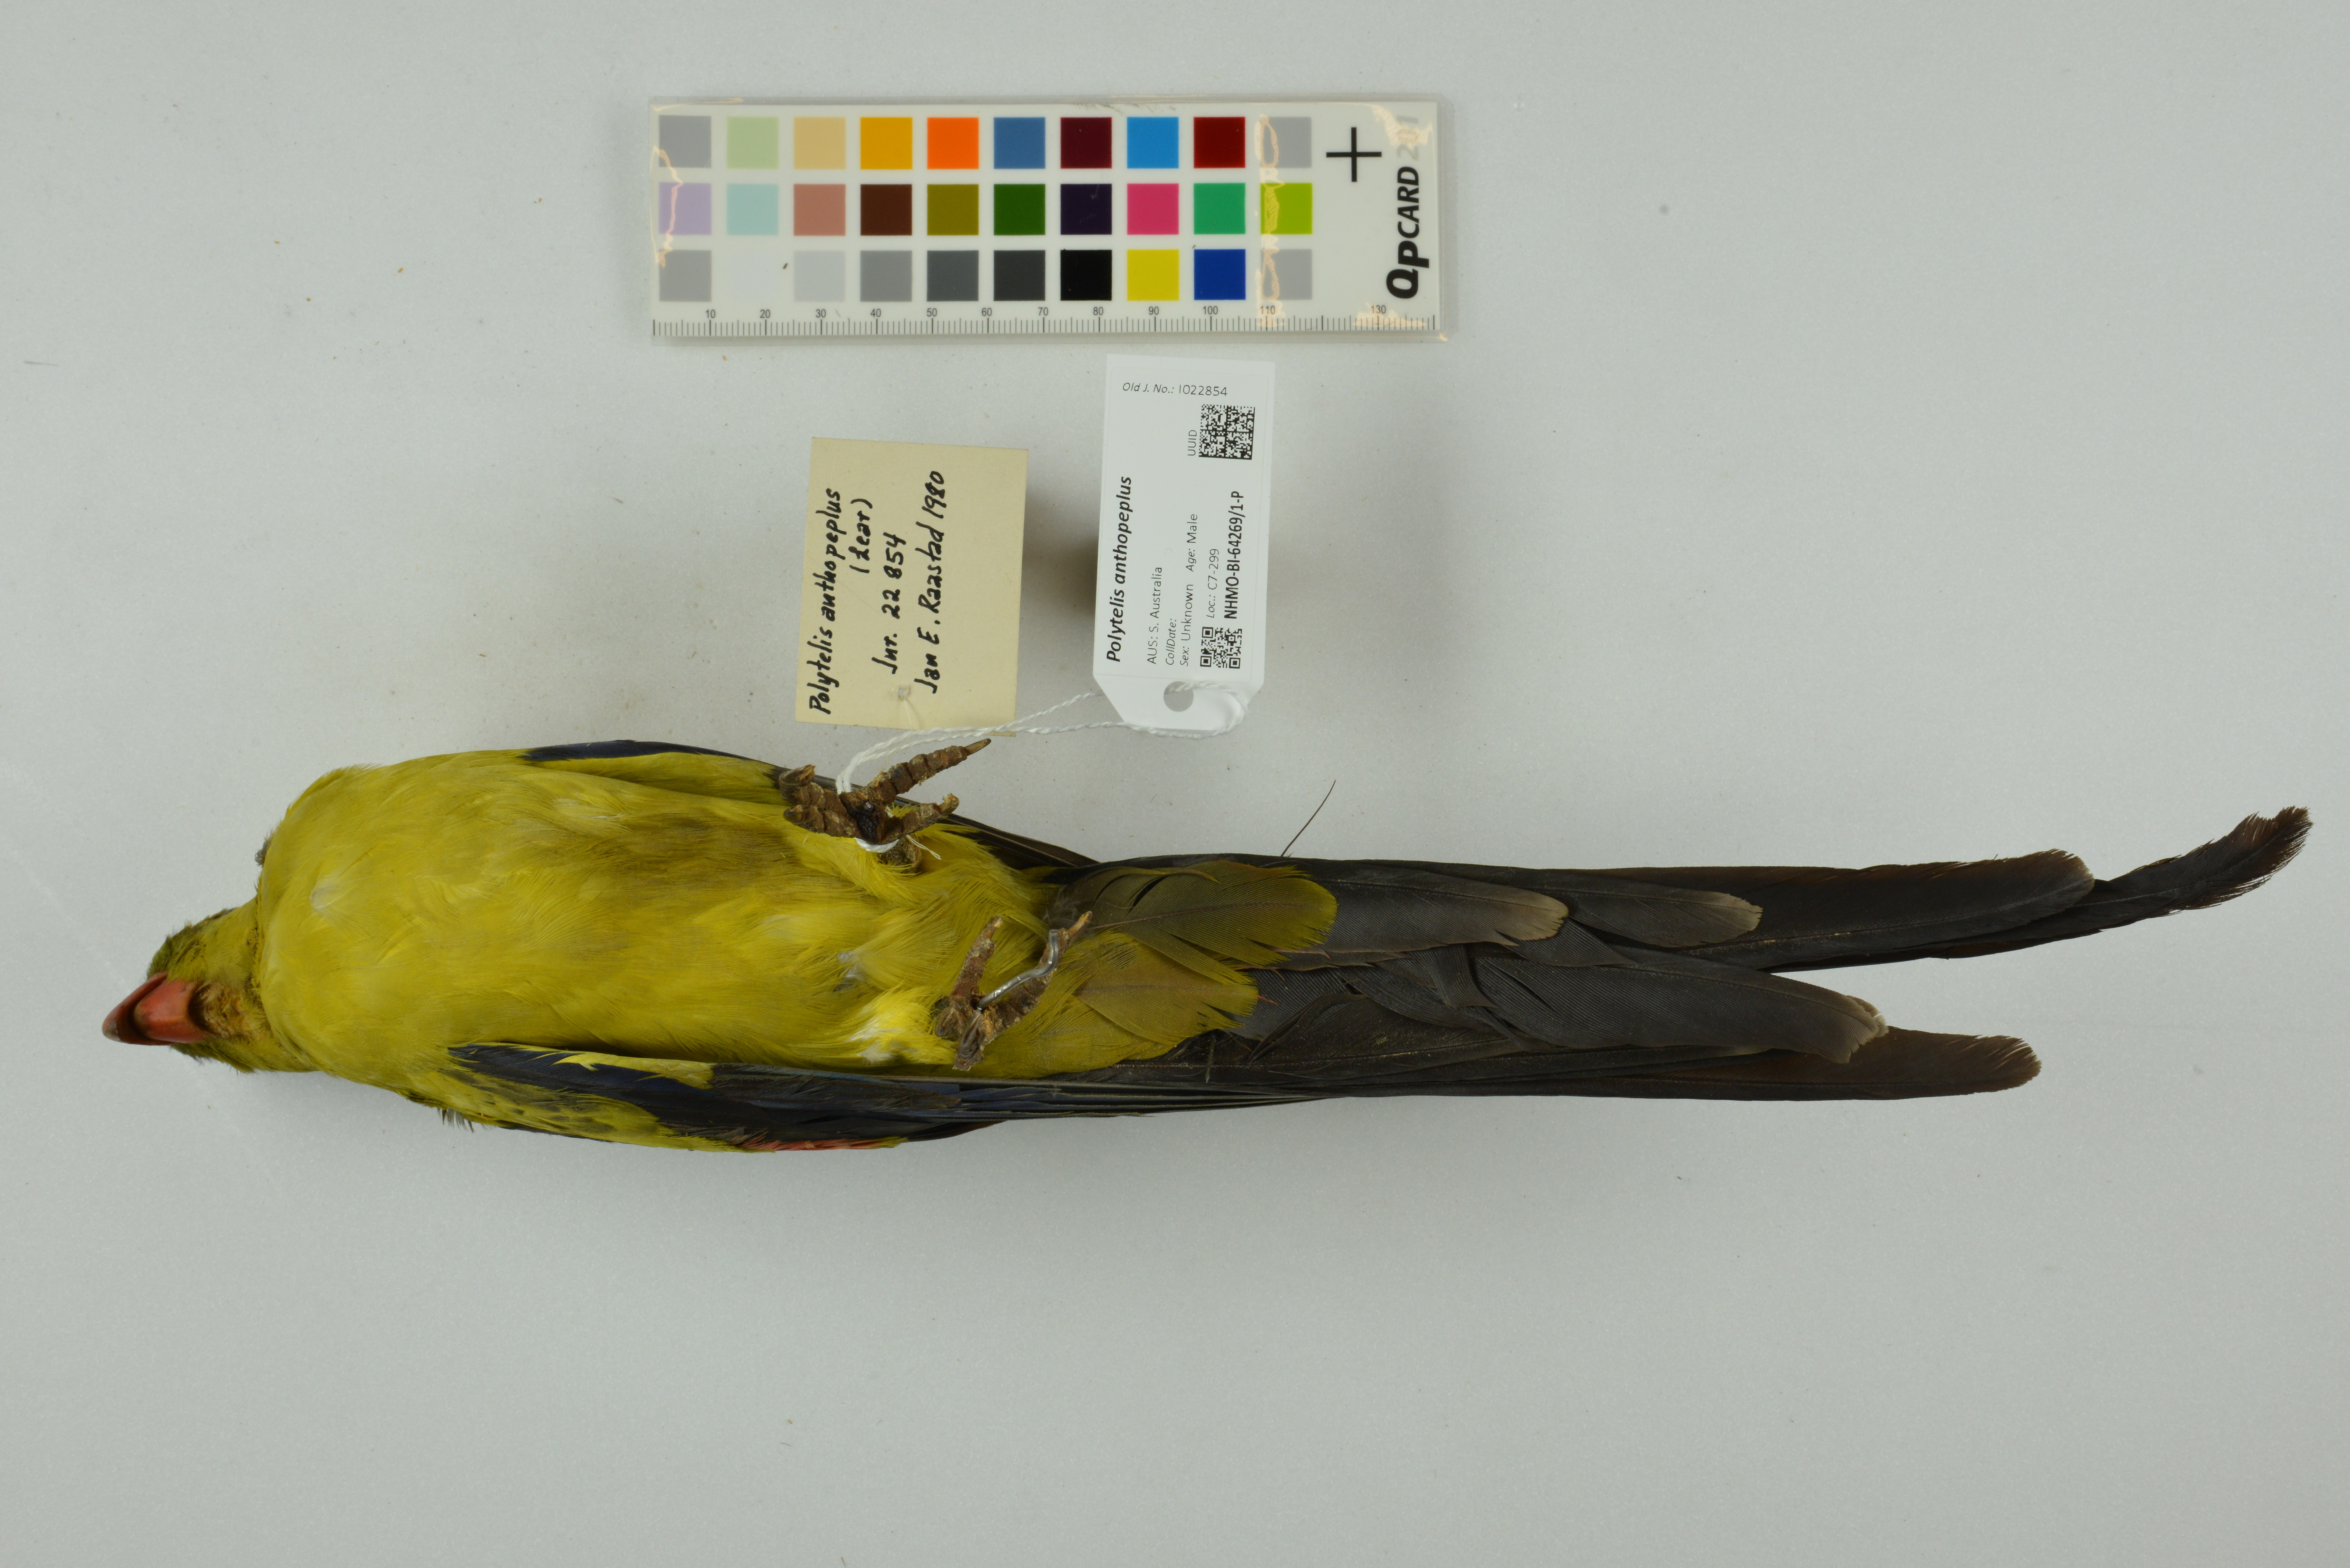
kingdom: Animalia
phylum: Chordata
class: Aves
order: Psittaciformes
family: Psittacidae
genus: Polytelis
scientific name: Polytelis anthopeplus
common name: Regent parrot
